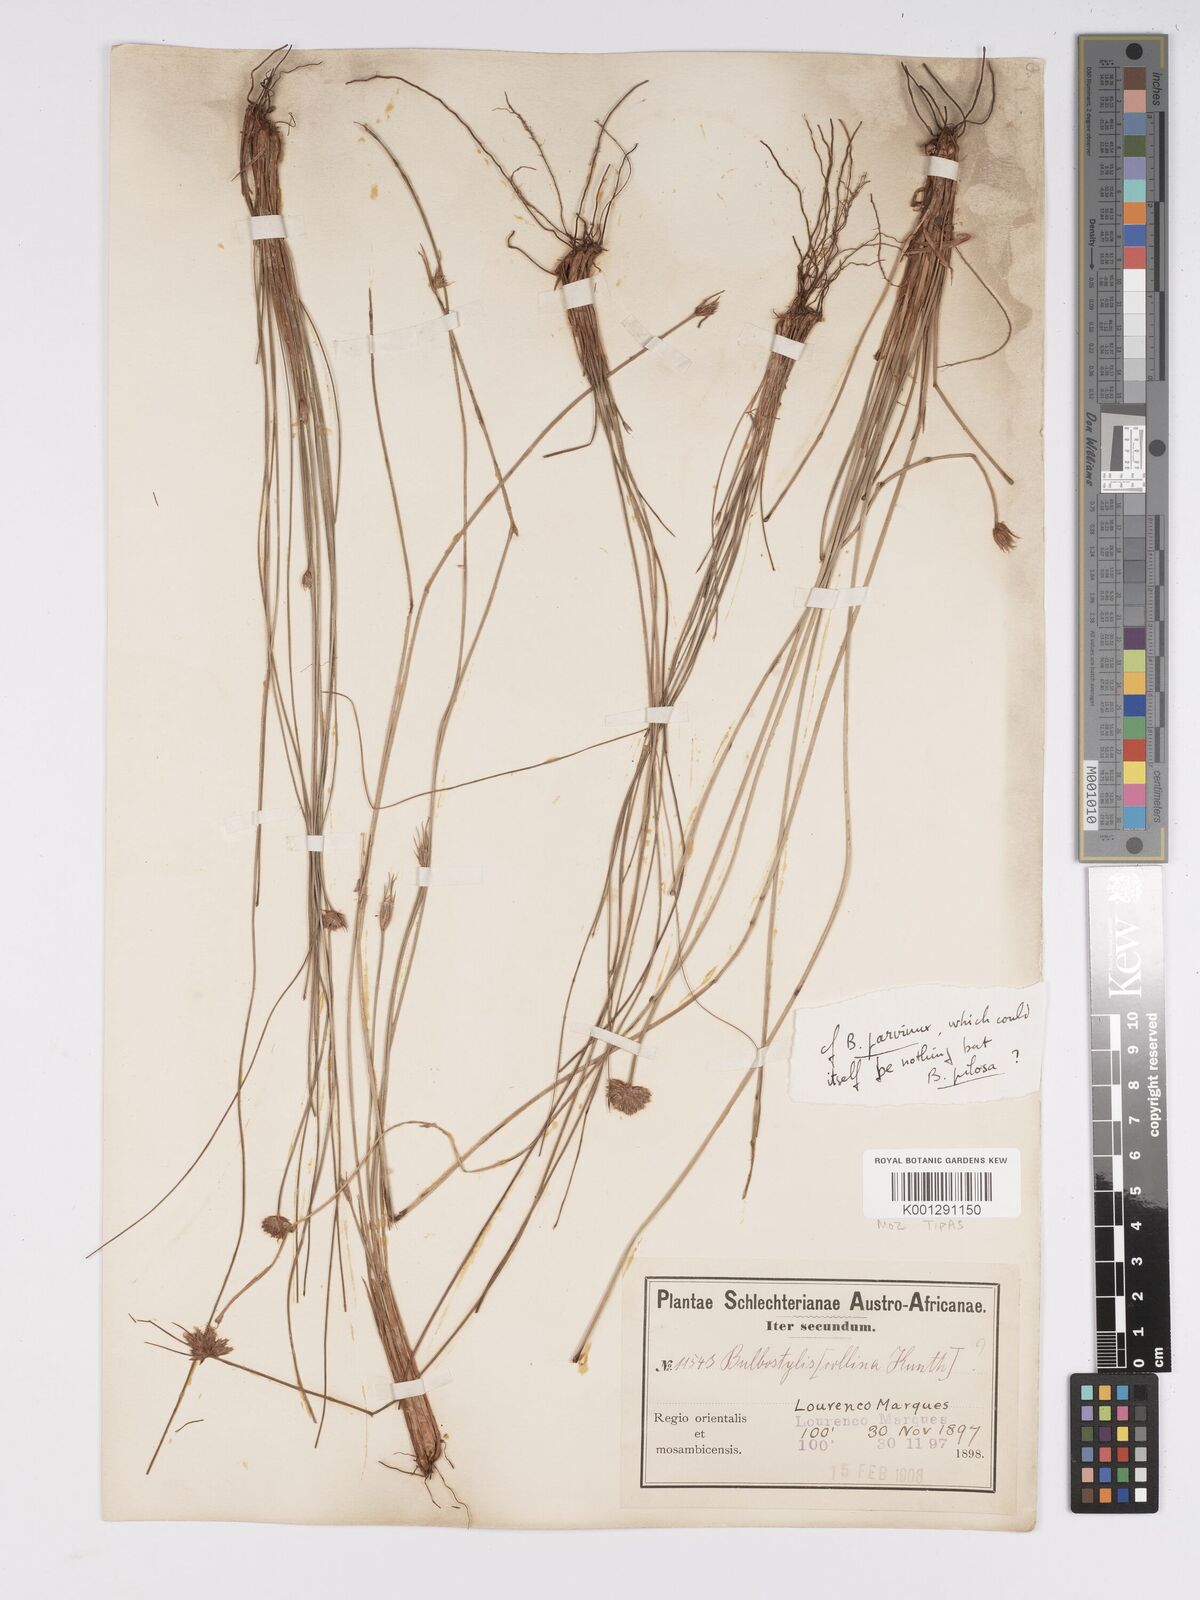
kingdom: Plantae
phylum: Tracheophyta
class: Liliopsida
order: Poales
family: Cyperaceae
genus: Bulbostylis
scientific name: Bulbostylis parvinux
